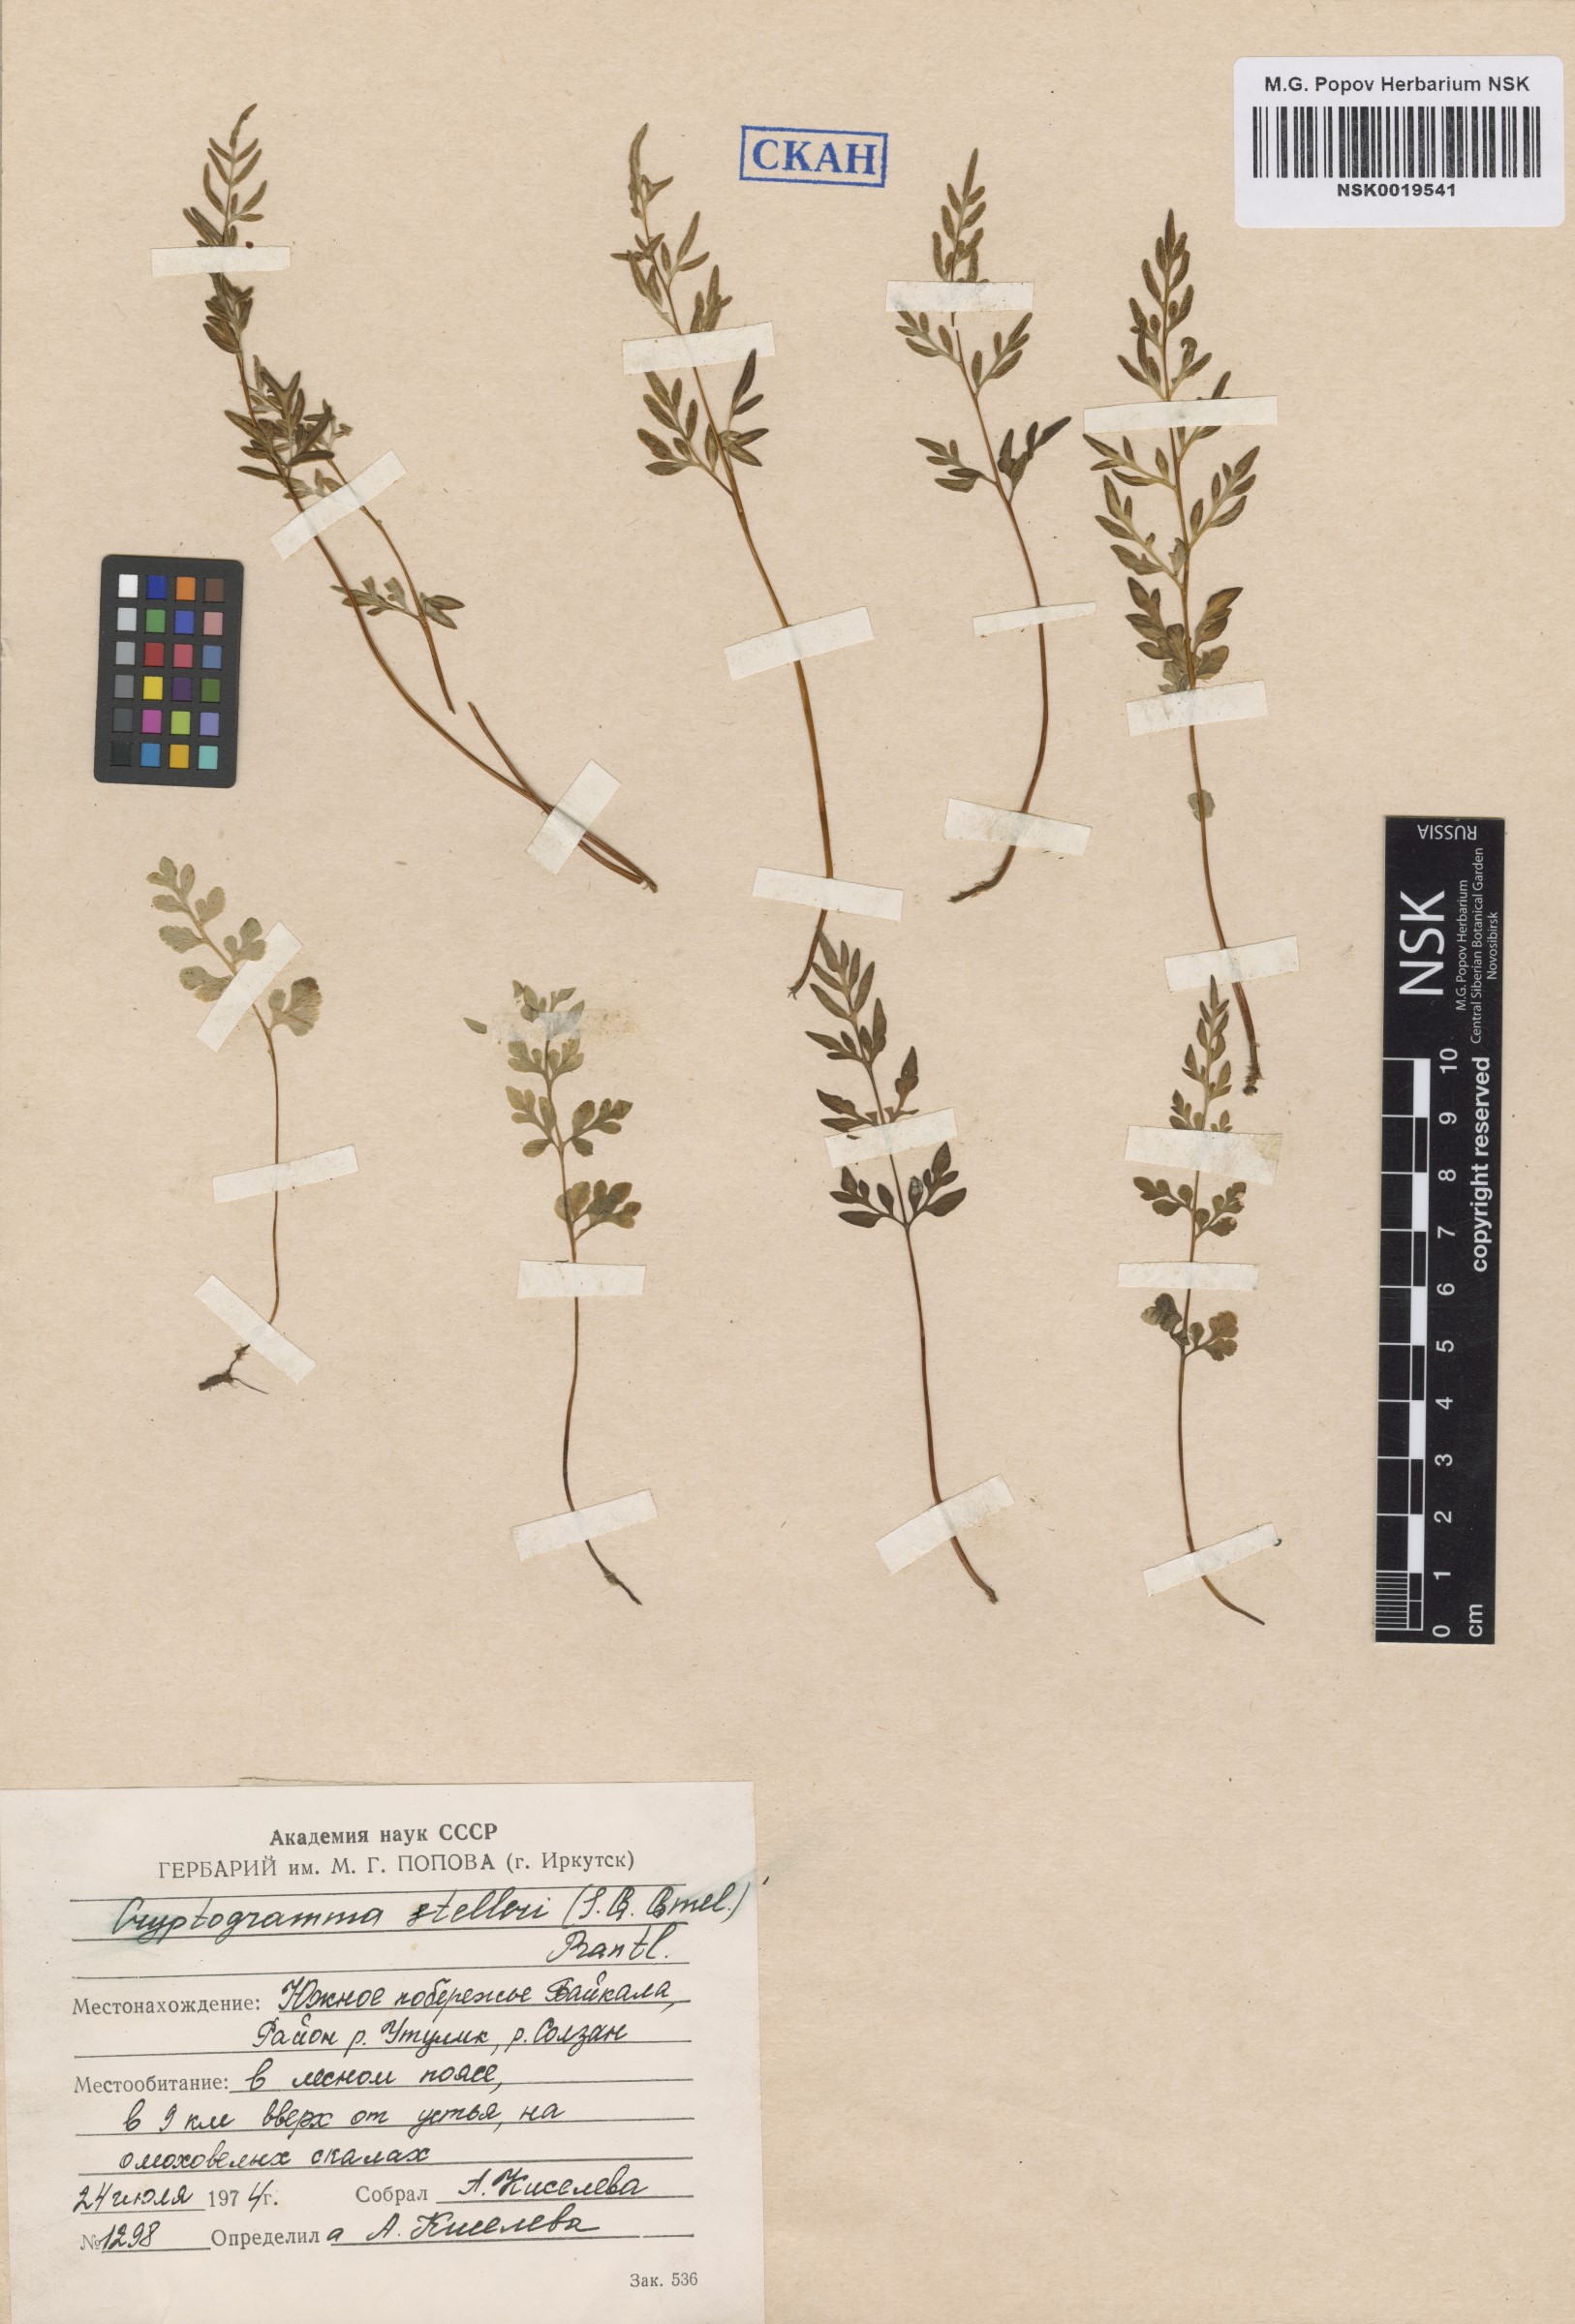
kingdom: Plantae
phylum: Tracheophyta
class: Polypodiopsida
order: Polypodiales
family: Pteridaceae
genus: Cryptogramma
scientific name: Cryptogramma stelleri
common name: Cliff-brake
